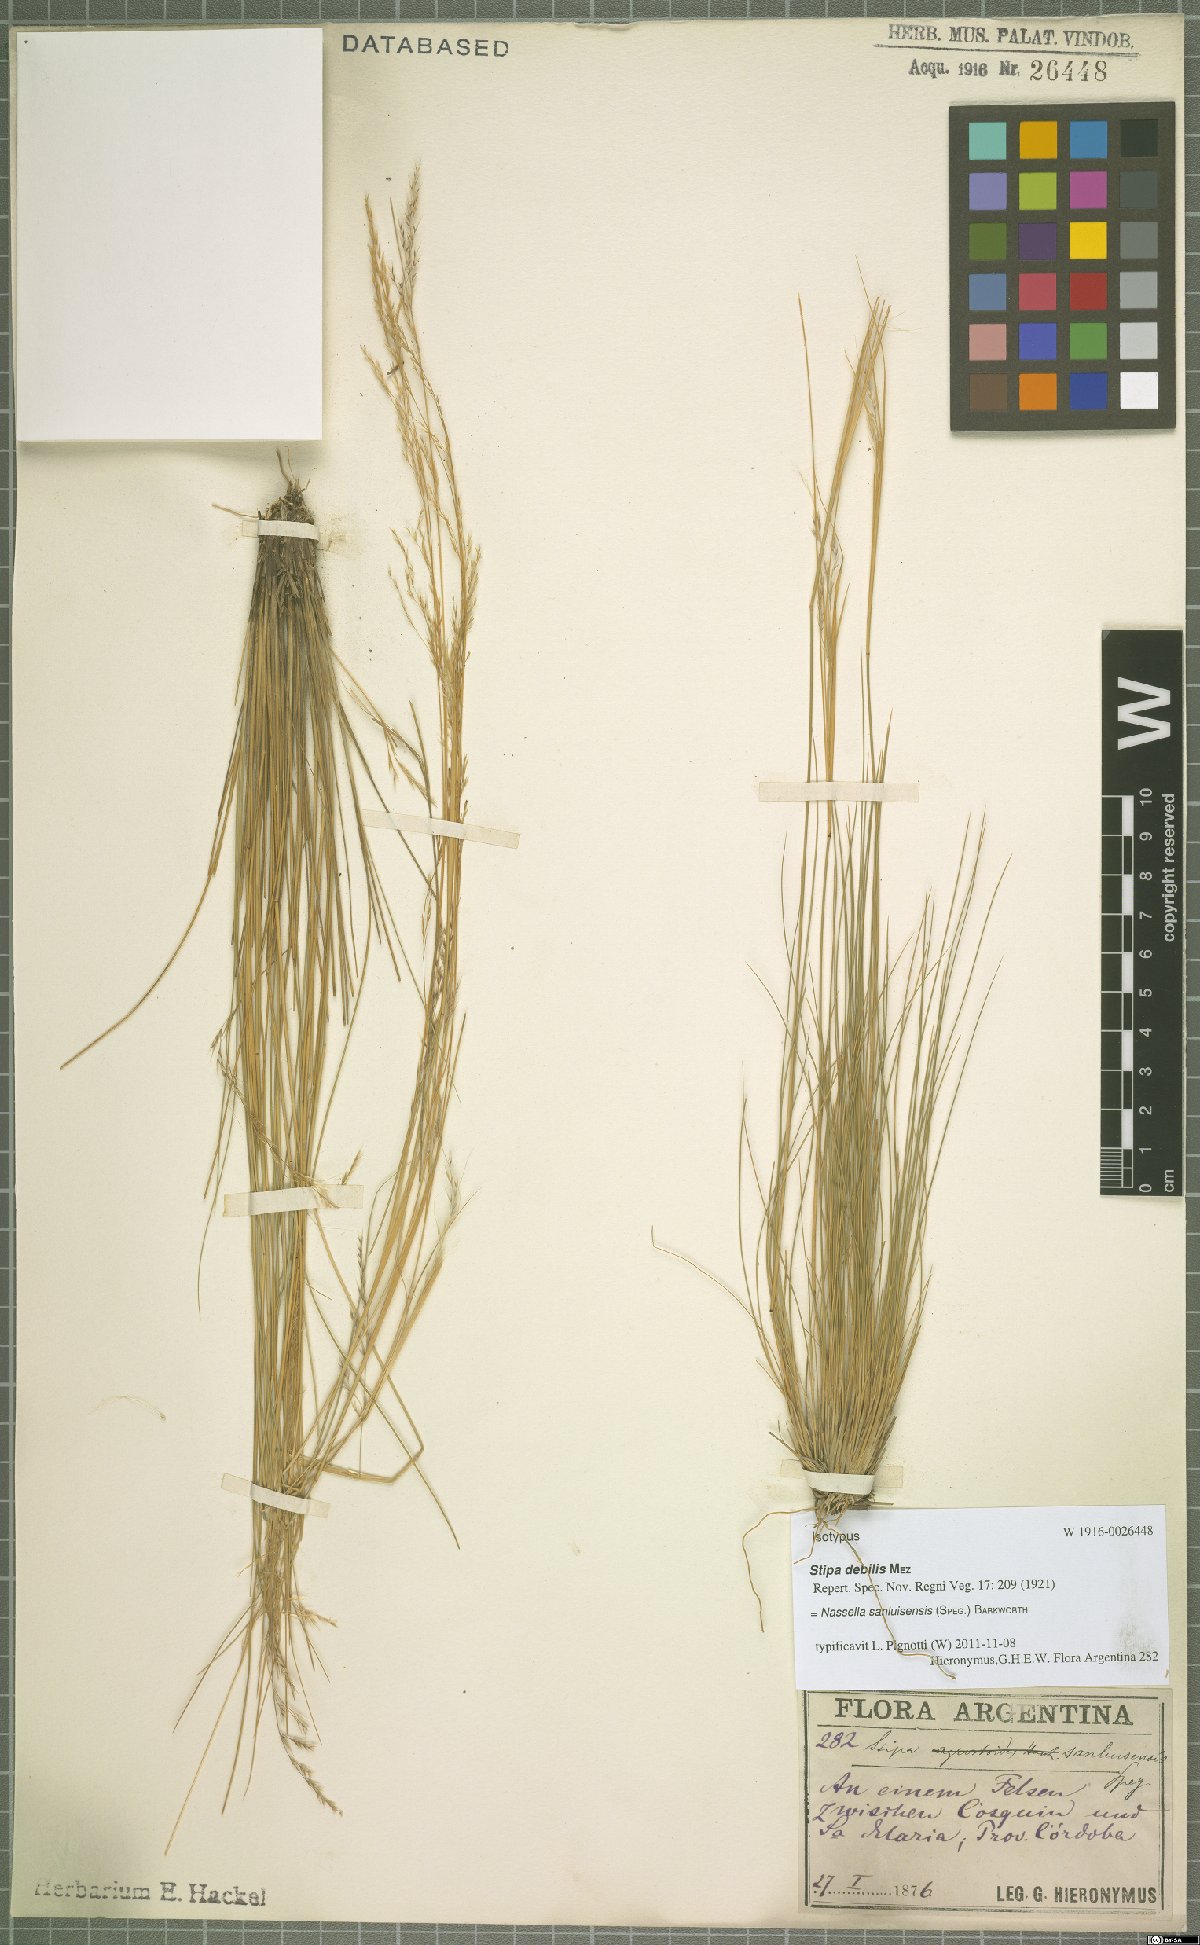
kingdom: Plantae
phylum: Tracheophyta
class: Liliopsida
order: Poales
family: Poaceae
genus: Nassella
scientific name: Nassella sanluisensis
